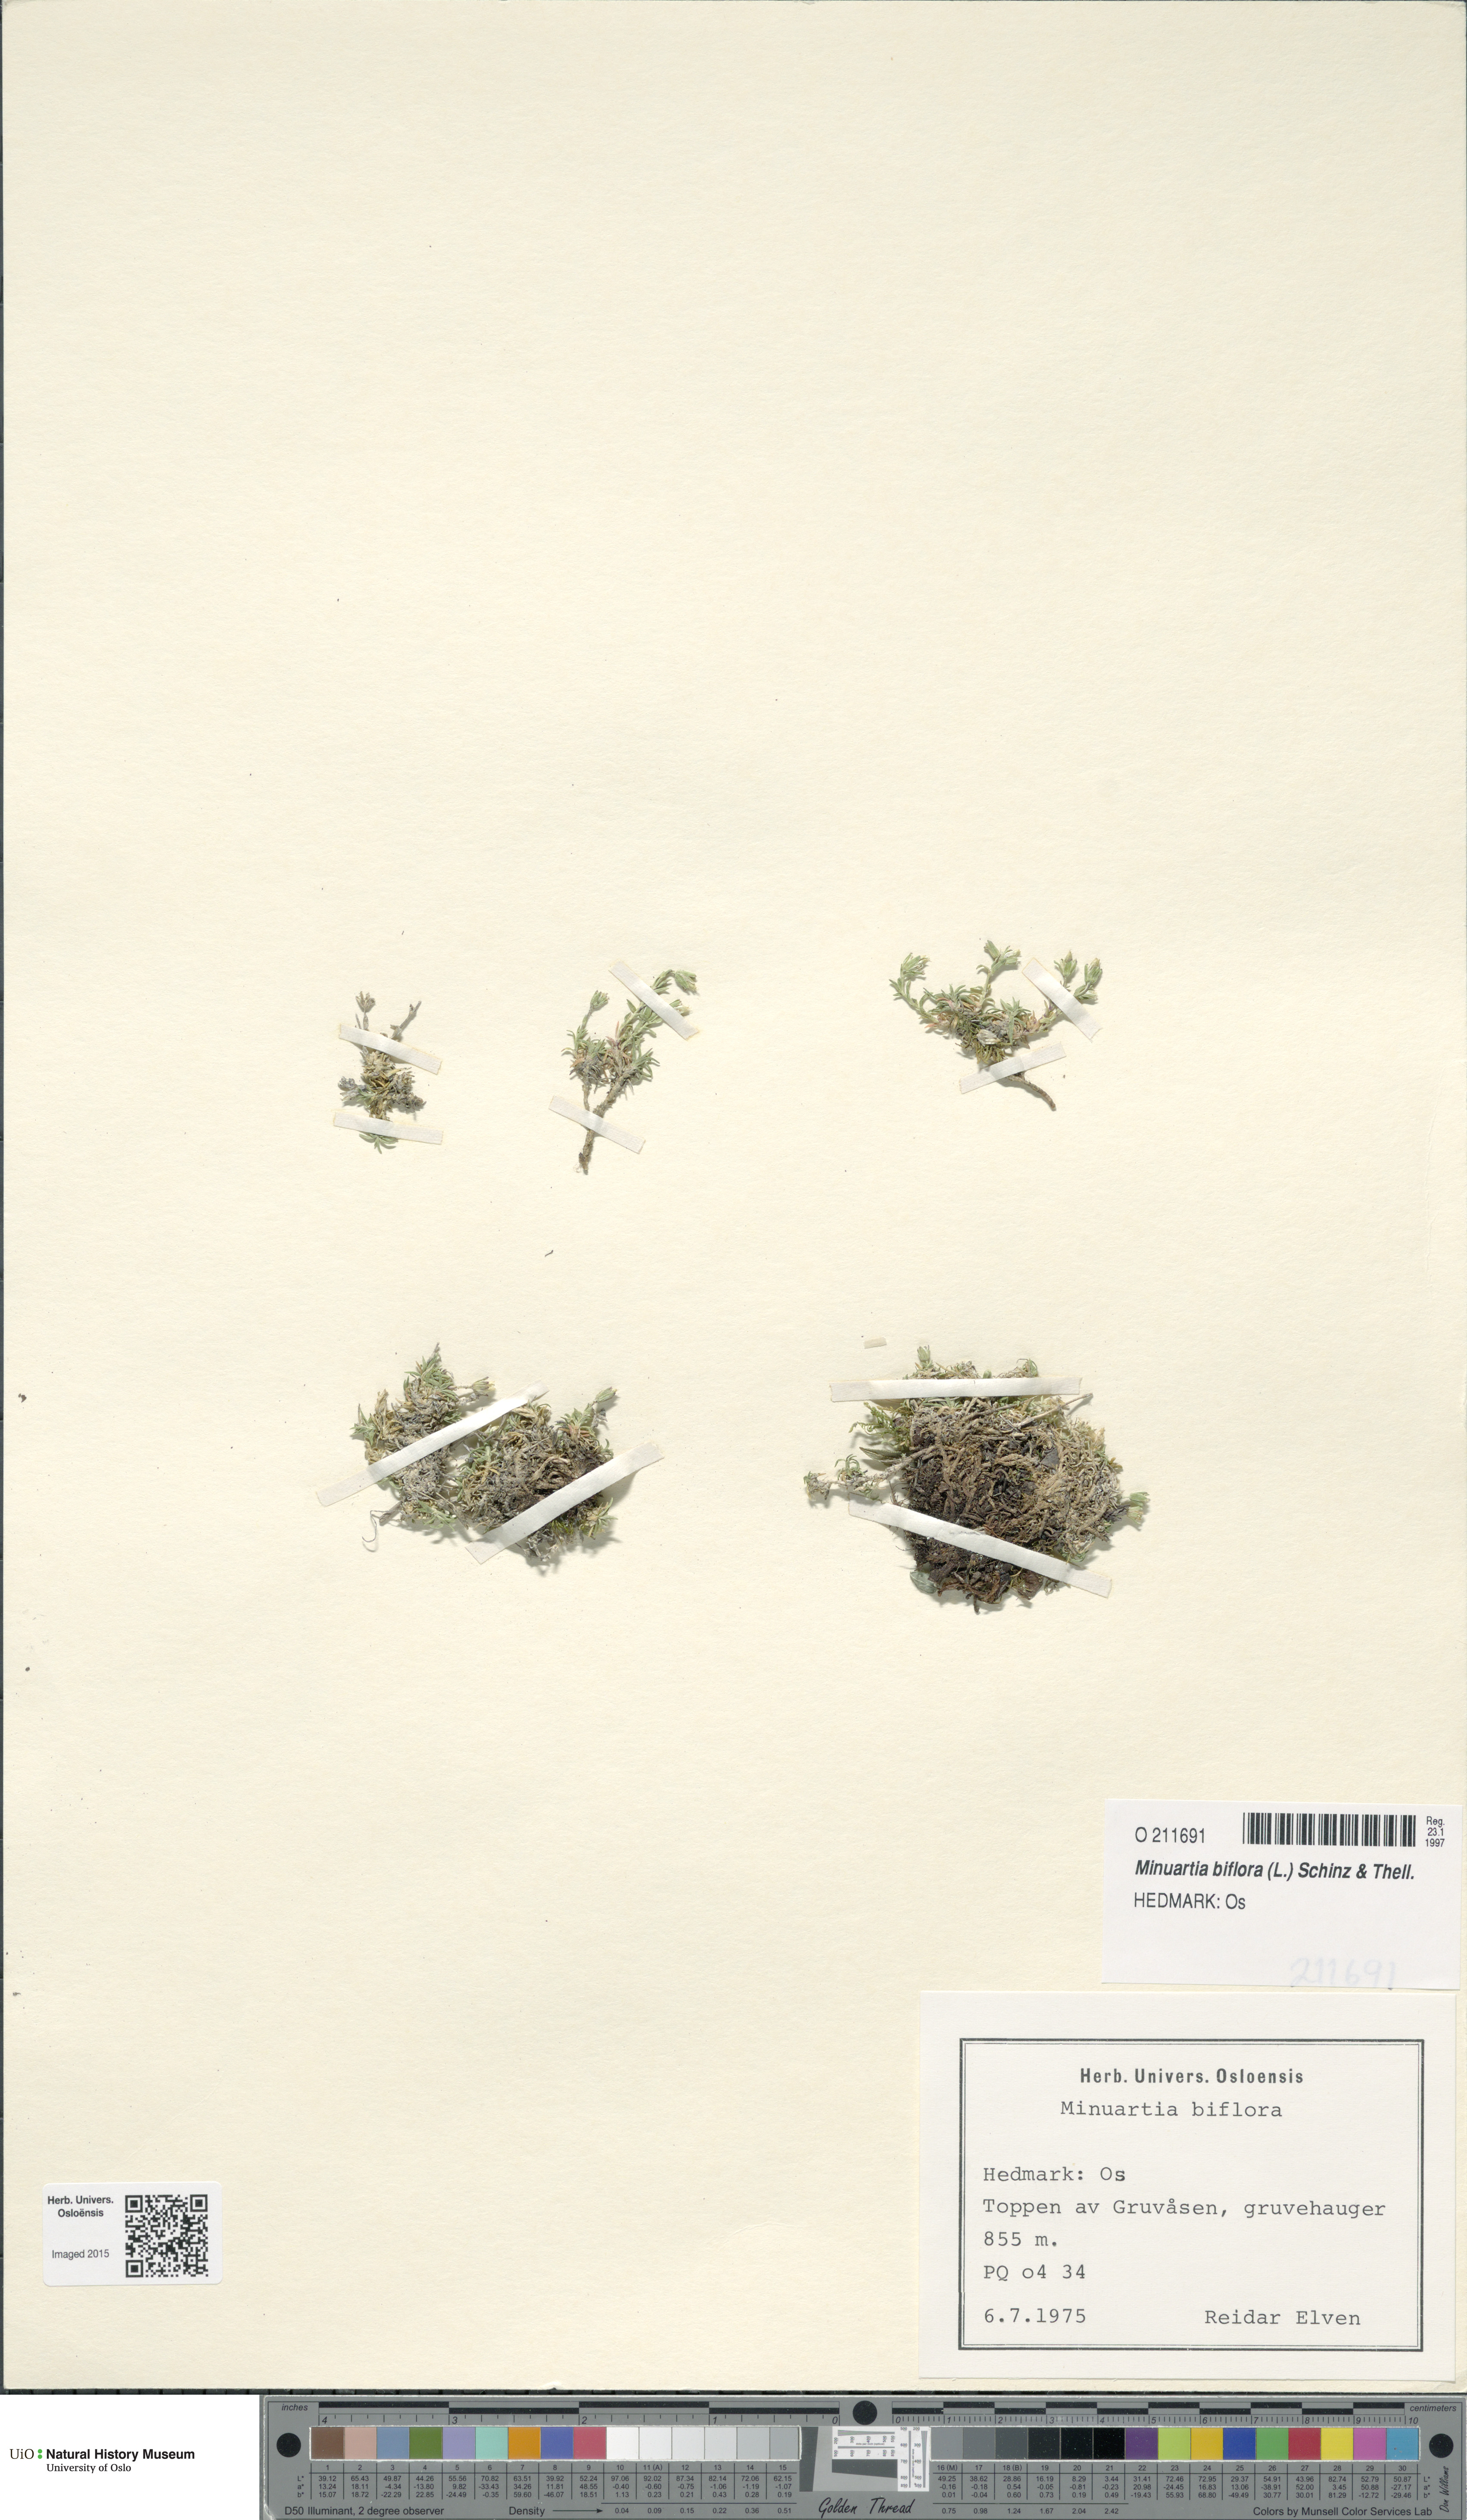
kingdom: Plantae
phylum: Tracheophyta
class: Magnoliopsida
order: Caryophyllales
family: Caryophyllaceae
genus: Cherleria
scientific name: Cherleria biflora
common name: Mountain sandwort
